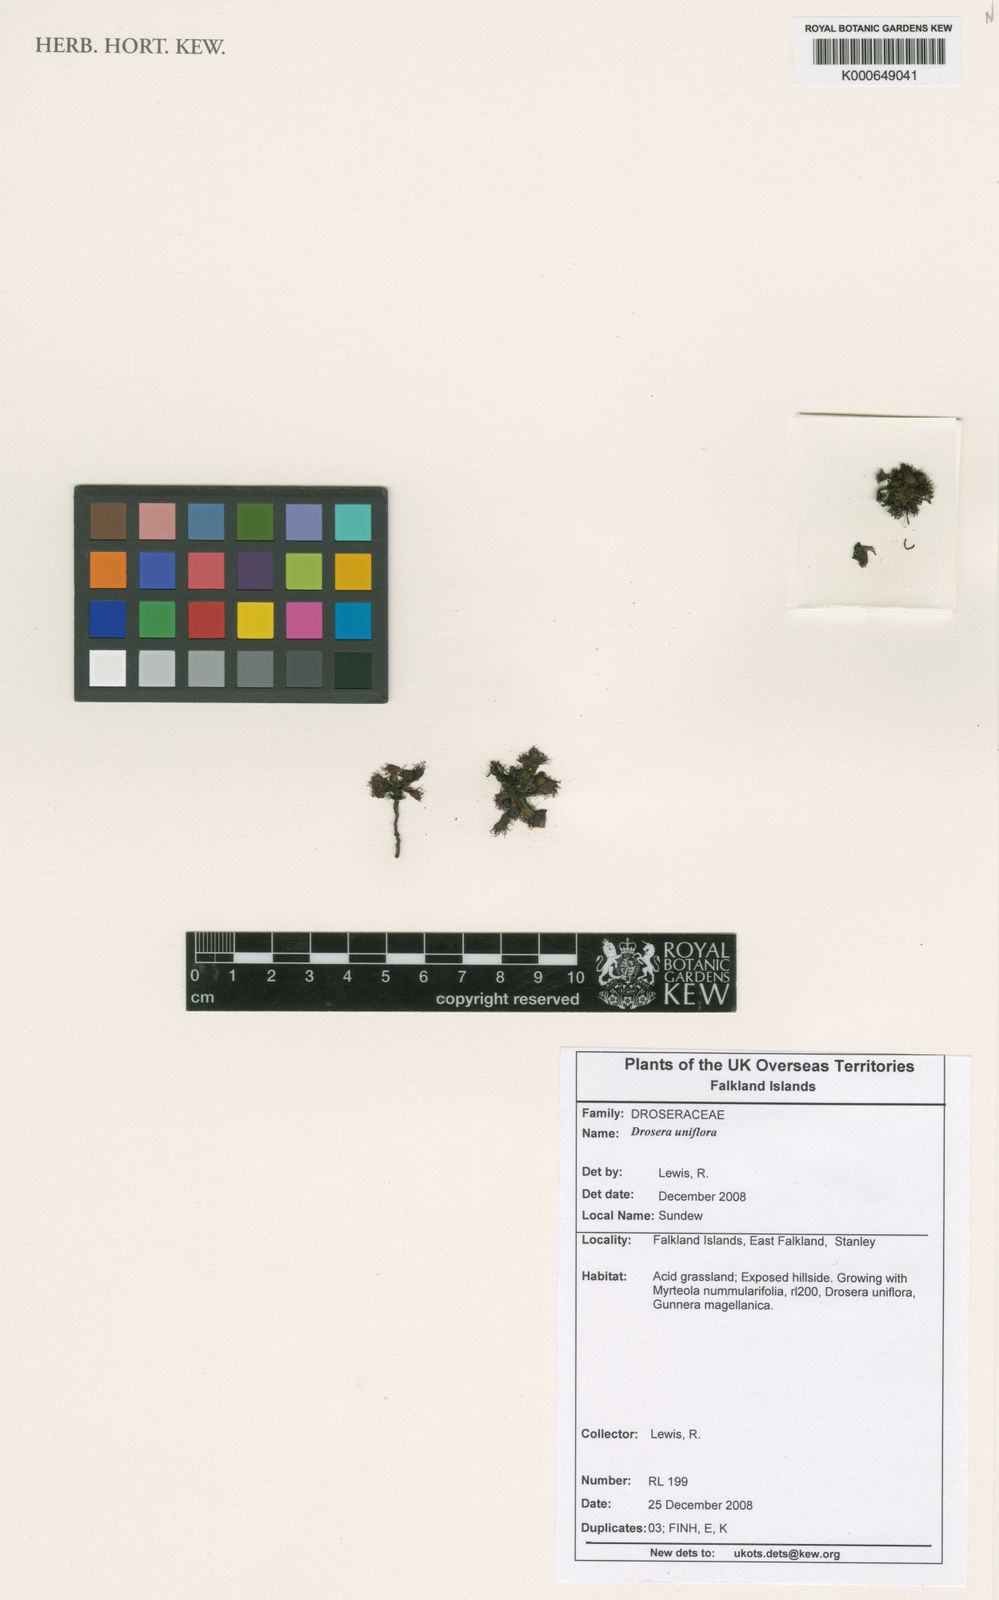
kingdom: Plantae
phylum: Tracheophyta
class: Magnoliopsida
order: Caryophyllales
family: Droseraceae
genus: Drosera
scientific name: Drosera uniflora
